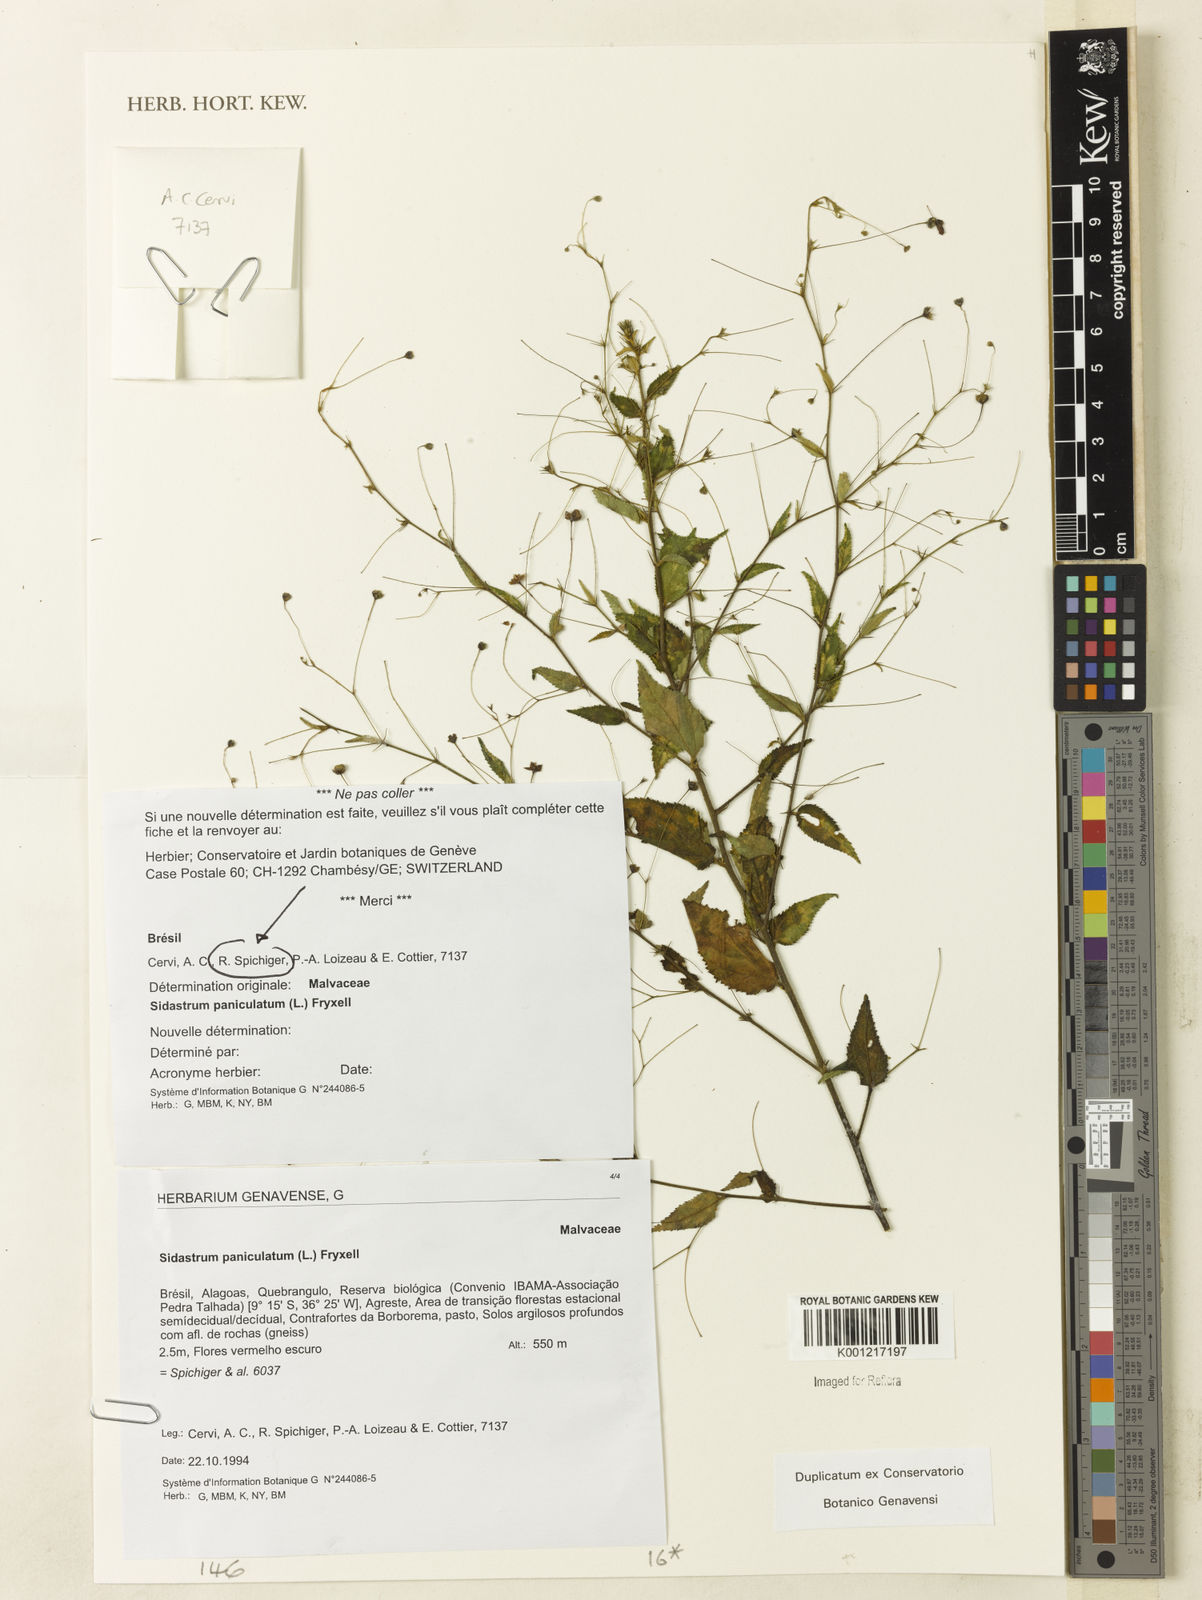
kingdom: Plantae
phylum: Tracheophyta
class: Magnoliopsida
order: Malvales
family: Malvaceae
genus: Sidastrum
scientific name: Sidastrum paniculatum
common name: Panicled sandmallow
